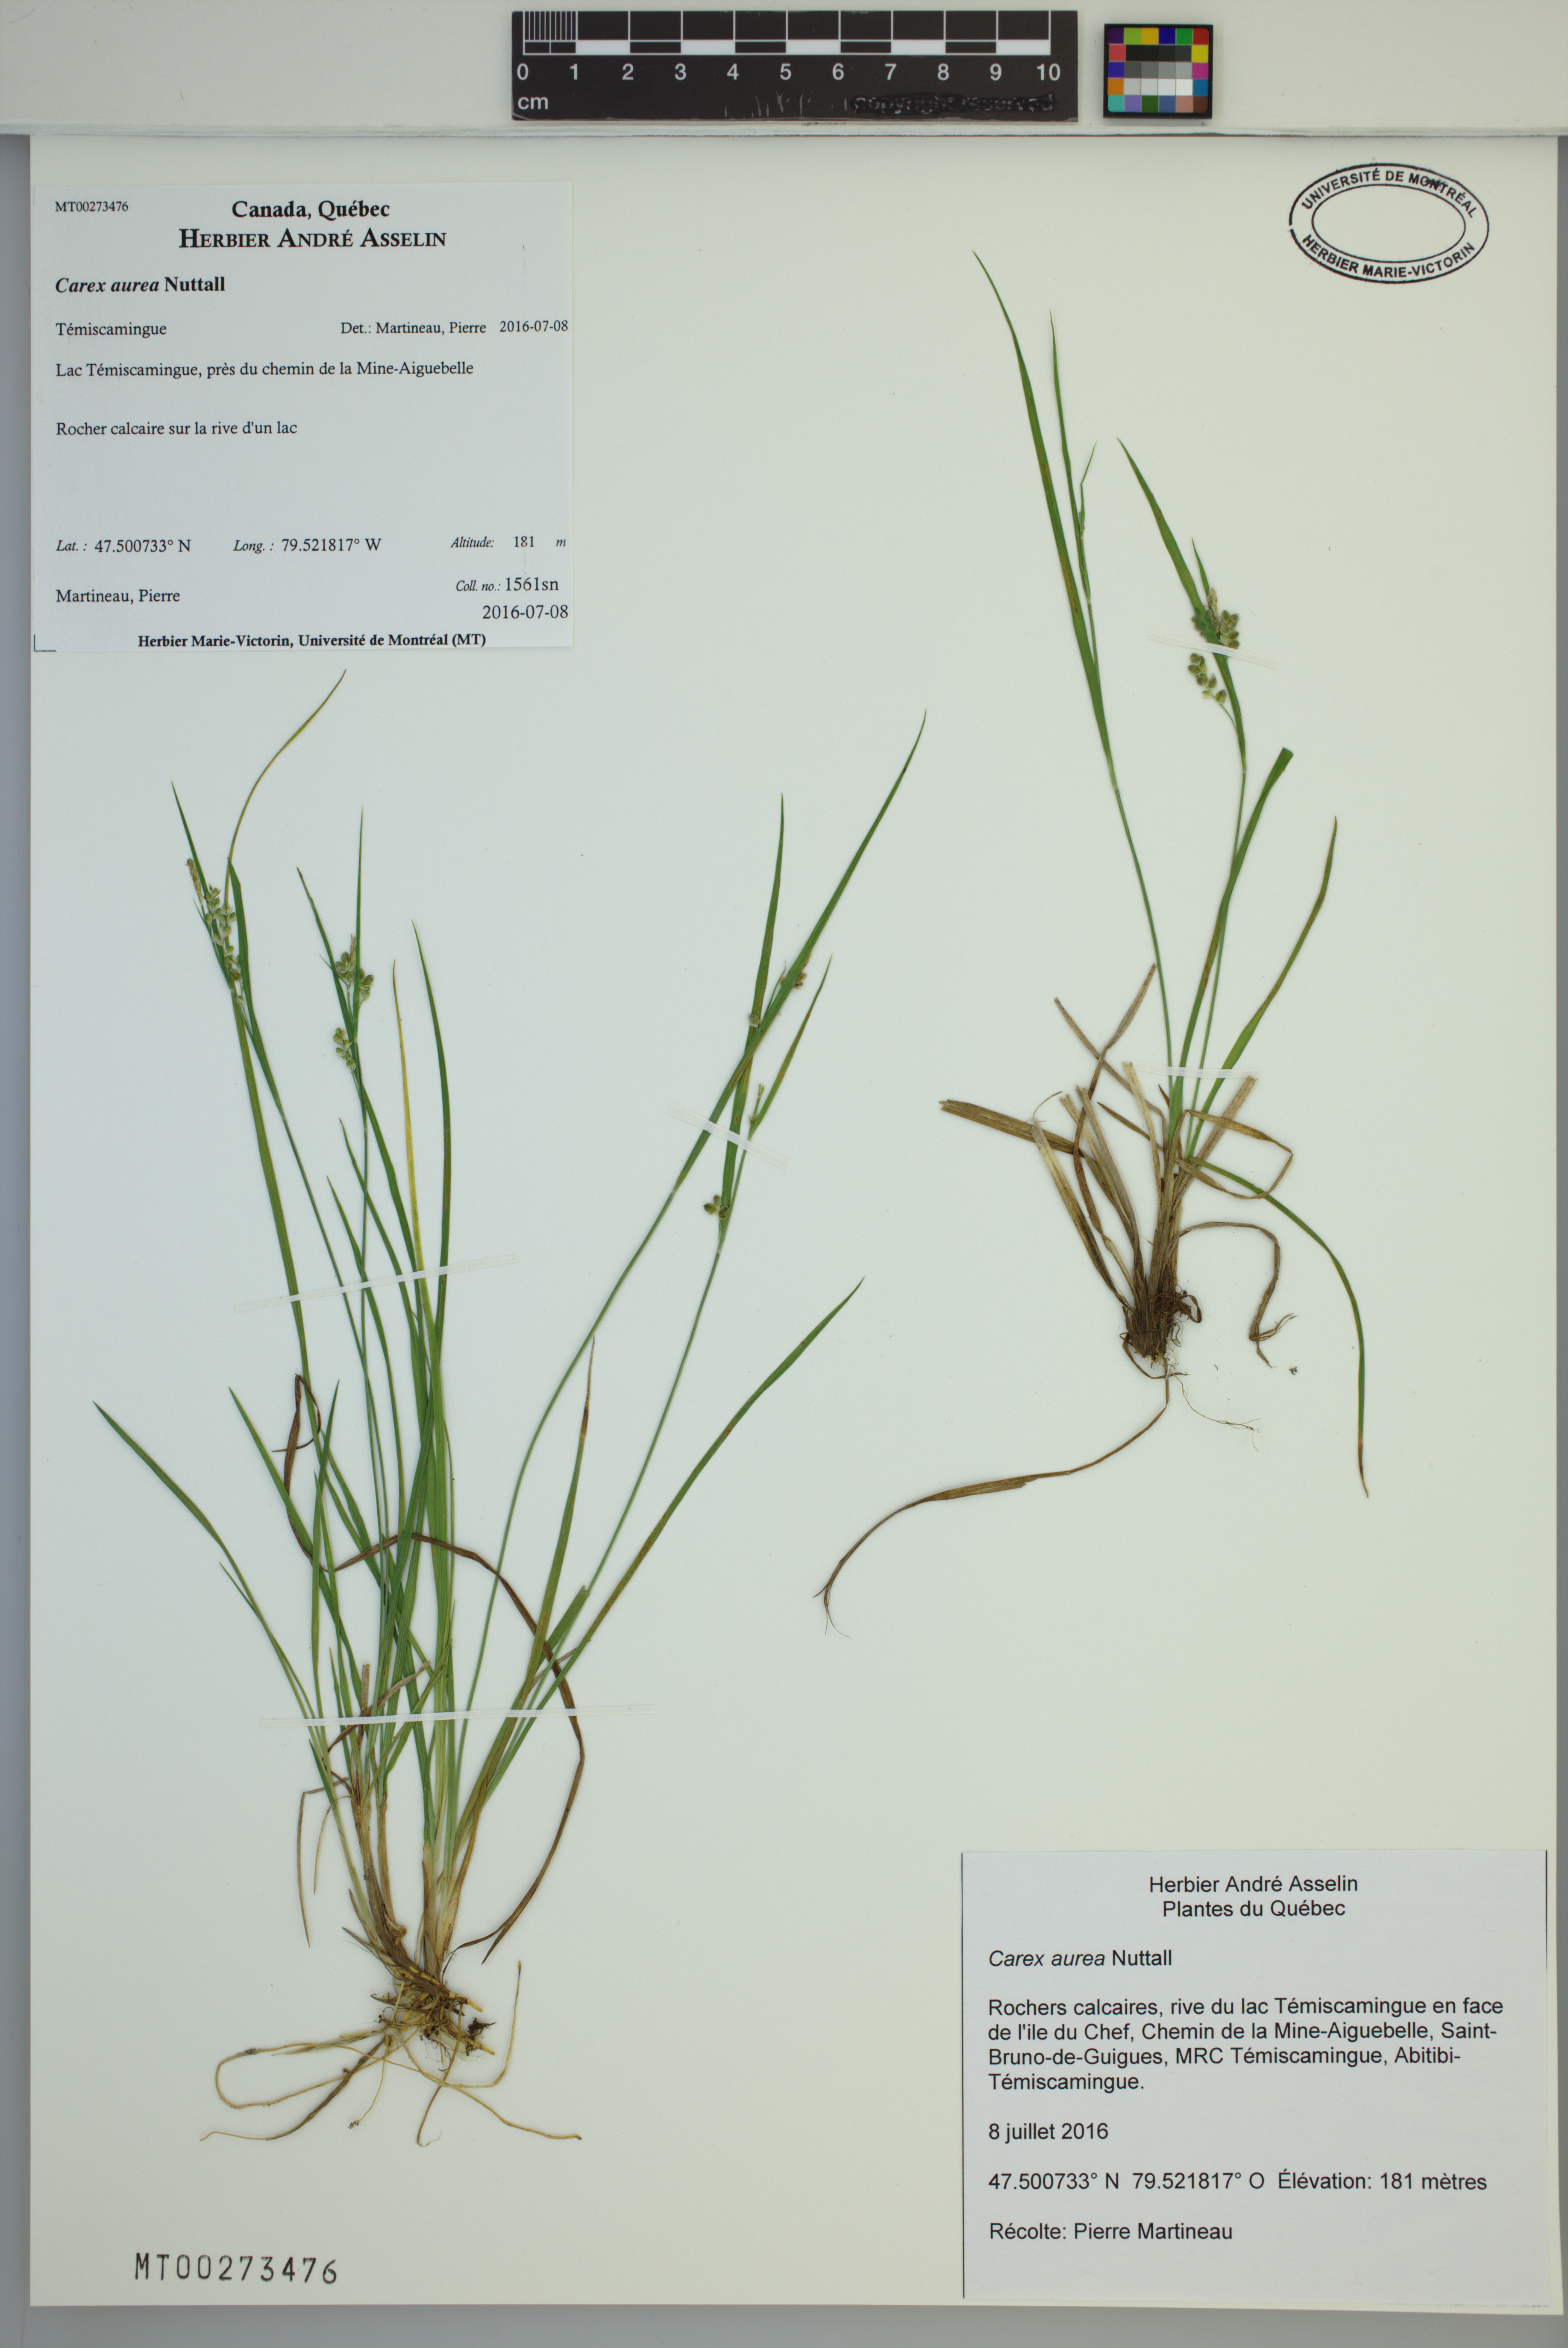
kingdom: Plantae
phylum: Tracheophyta
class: Liliopsida
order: Poales
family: Cyperaceae
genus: Carex
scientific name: Carex aurea
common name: Golden sedge
